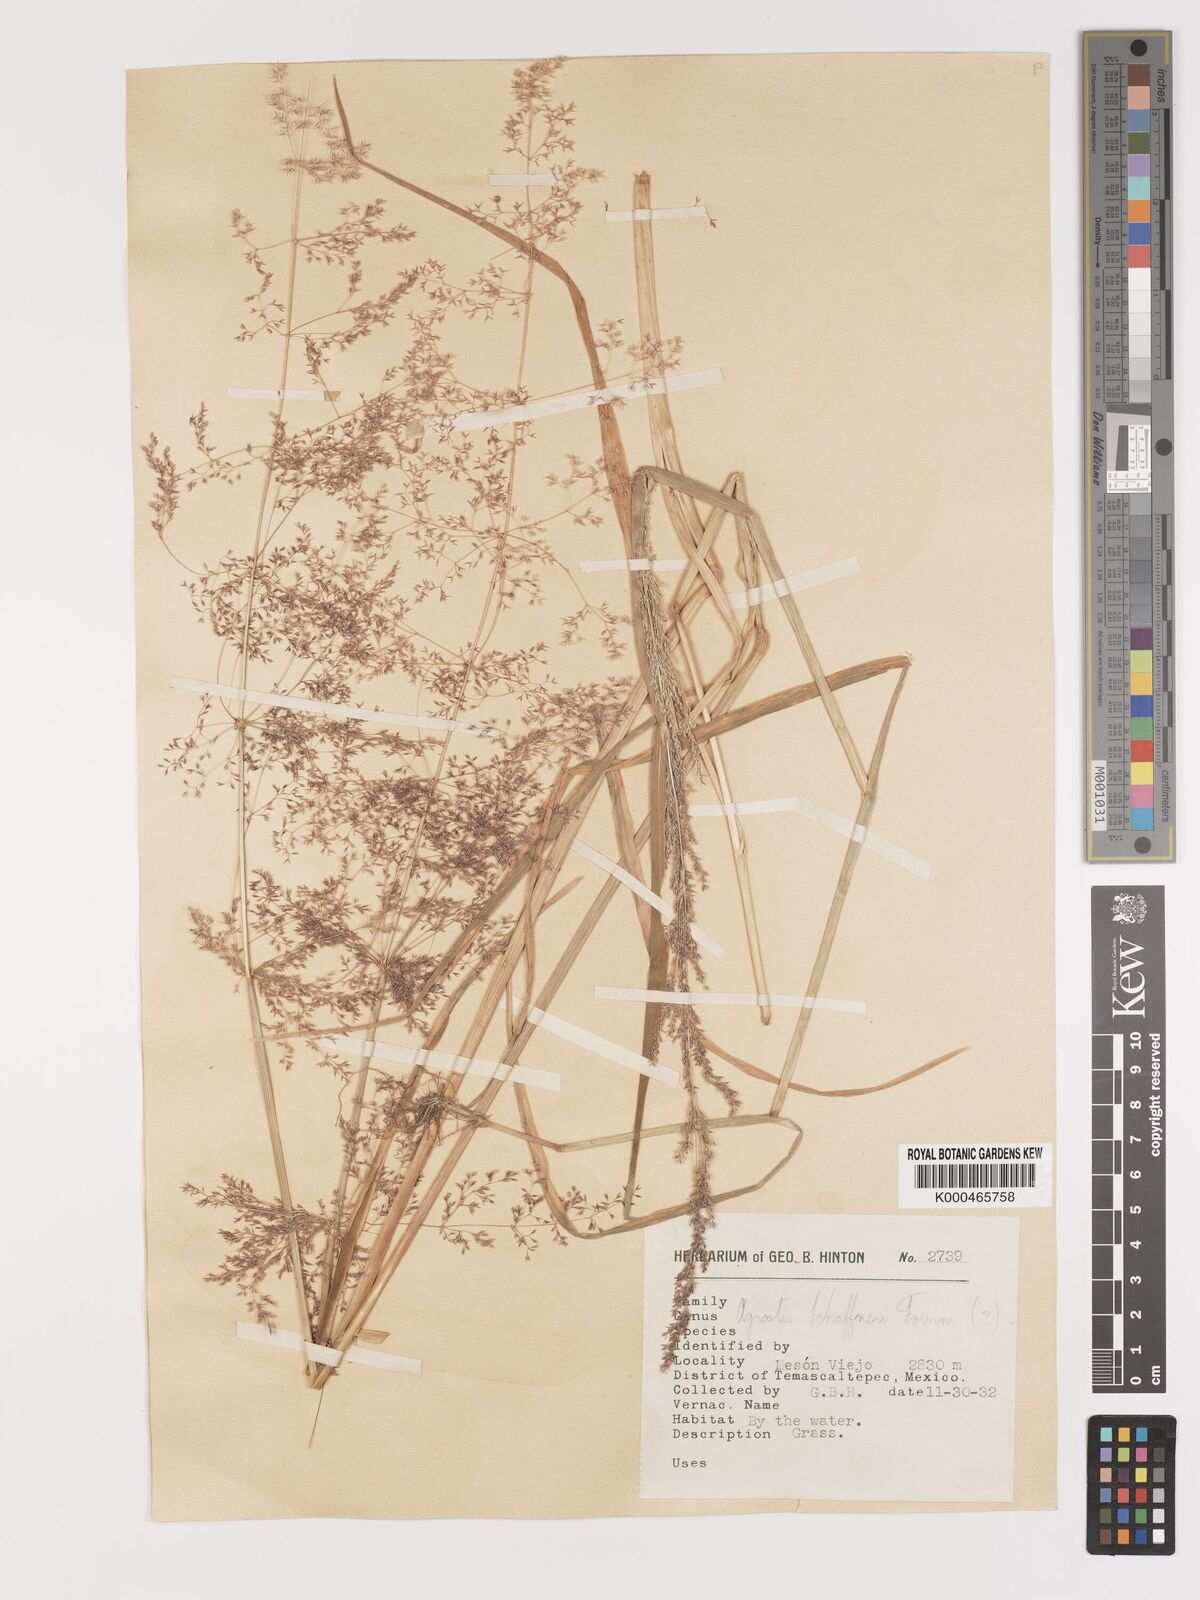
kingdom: Plantae
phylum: Tracheophyta
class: Liliopsida
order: Poales
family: Poaceae
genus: Agrostis
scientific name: Agrostis stolonifera
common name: Creeping bentgrass
